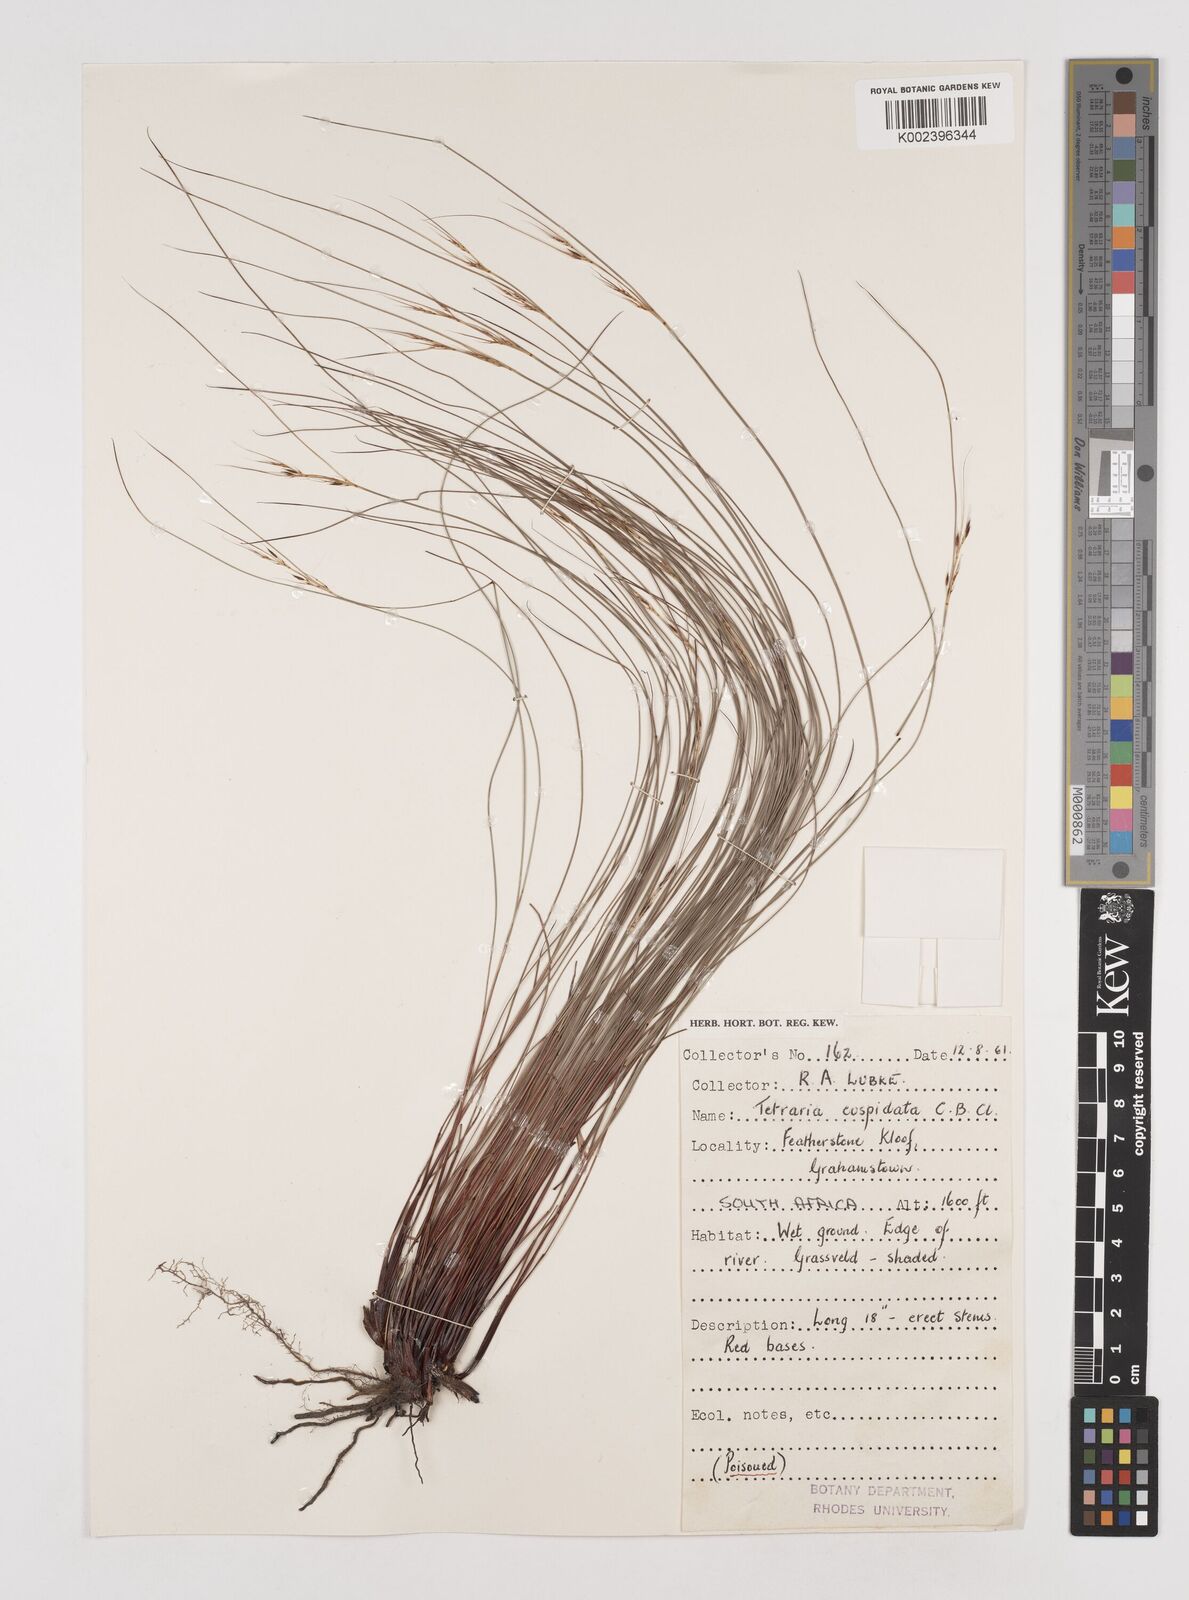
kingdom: Plantae
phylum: Tracheophyta
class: Liliopsida
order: Poales
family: Cyperaceae
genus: Schoenus
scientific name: Schoenus cuspidatus
